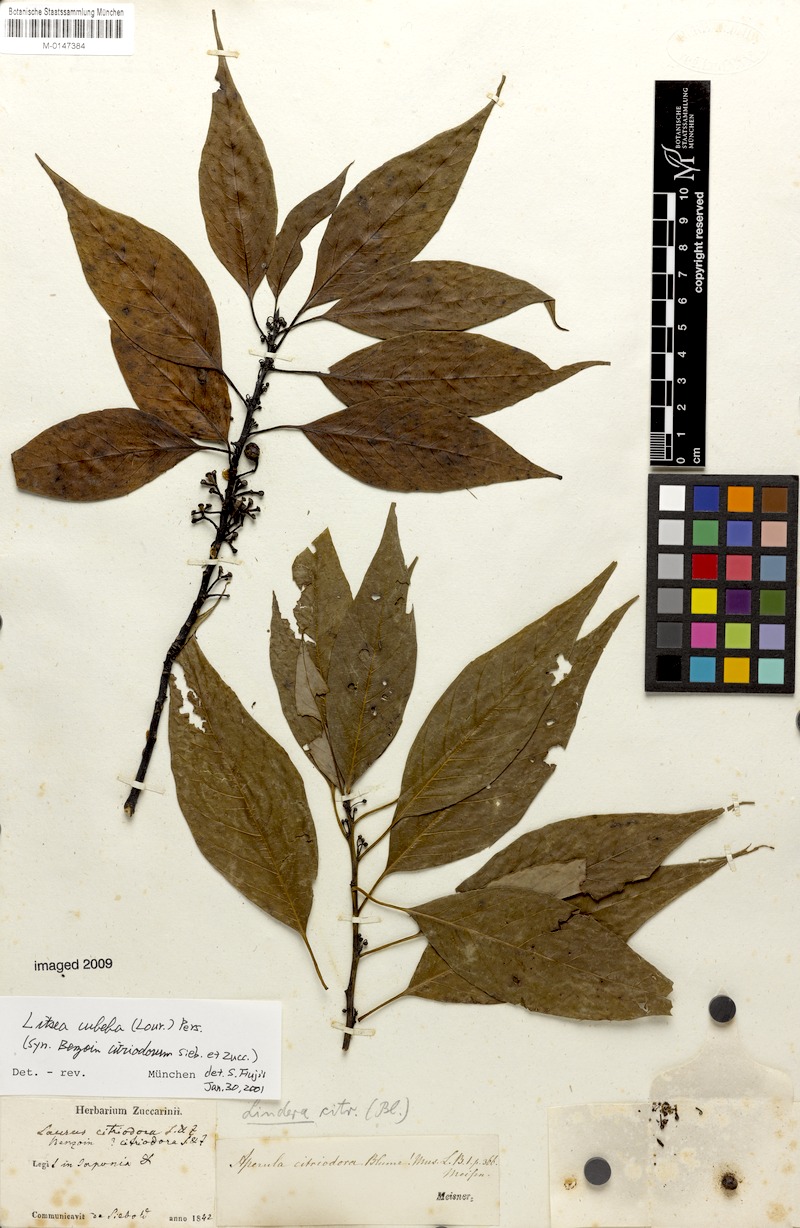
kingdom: Plantae
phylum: Tracheophyta
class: Magnoliopsida
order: Laurales
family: Lauraceae
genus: Litsea
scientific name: Litsea cubeba
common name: Mountain-pepper
